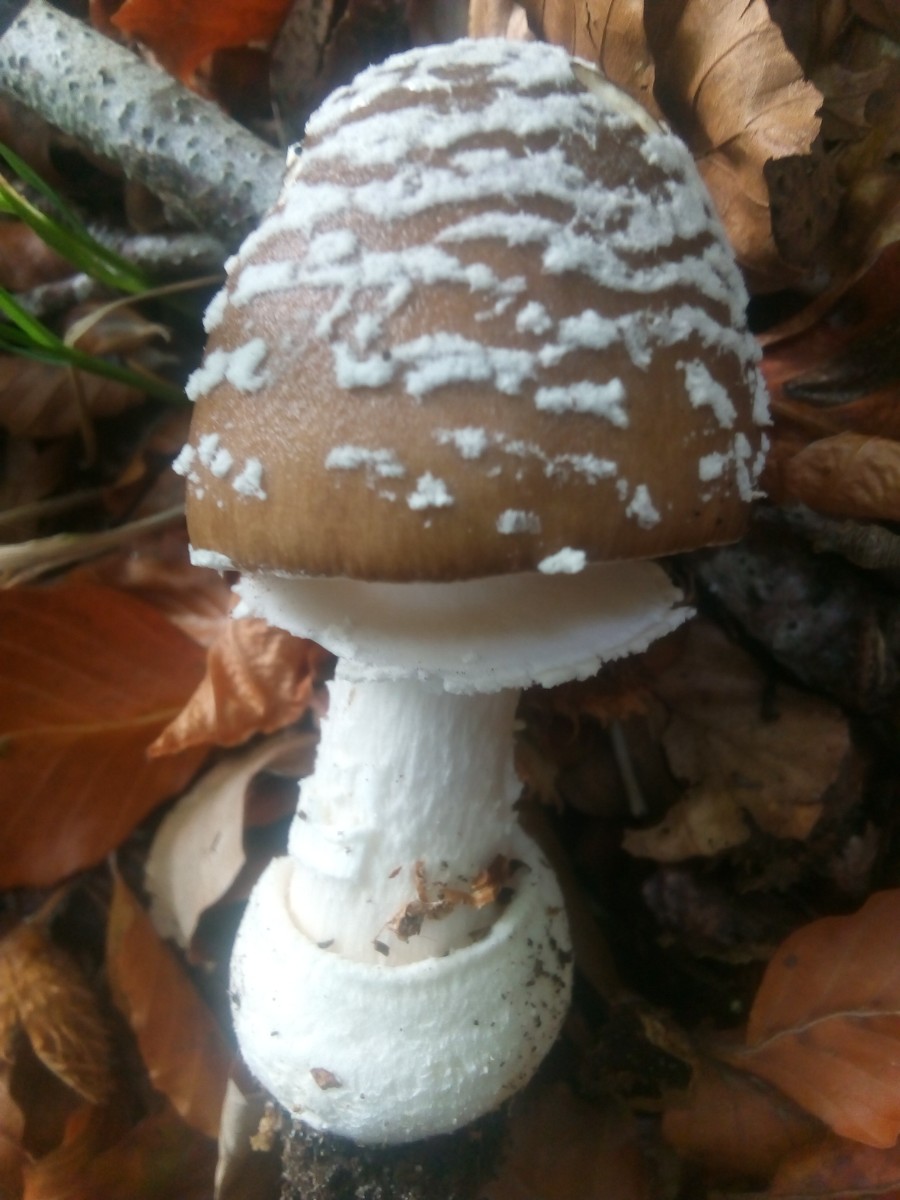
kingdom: Fungi
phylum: Basidiomycota
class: Agaricomycetes
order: Agaricales
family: Amanitaceae
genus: Amanita
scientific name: Amanita pantherina
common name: panter-fluesvamp
